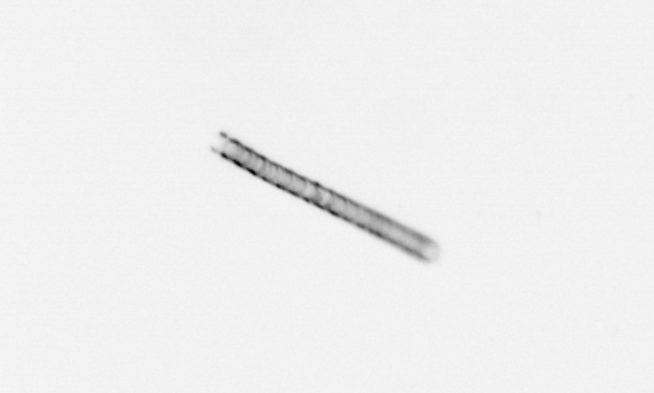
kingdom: Chromista
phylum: Ochrophyta
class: Bacillariophyceae
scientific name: Bacillariophyceae
